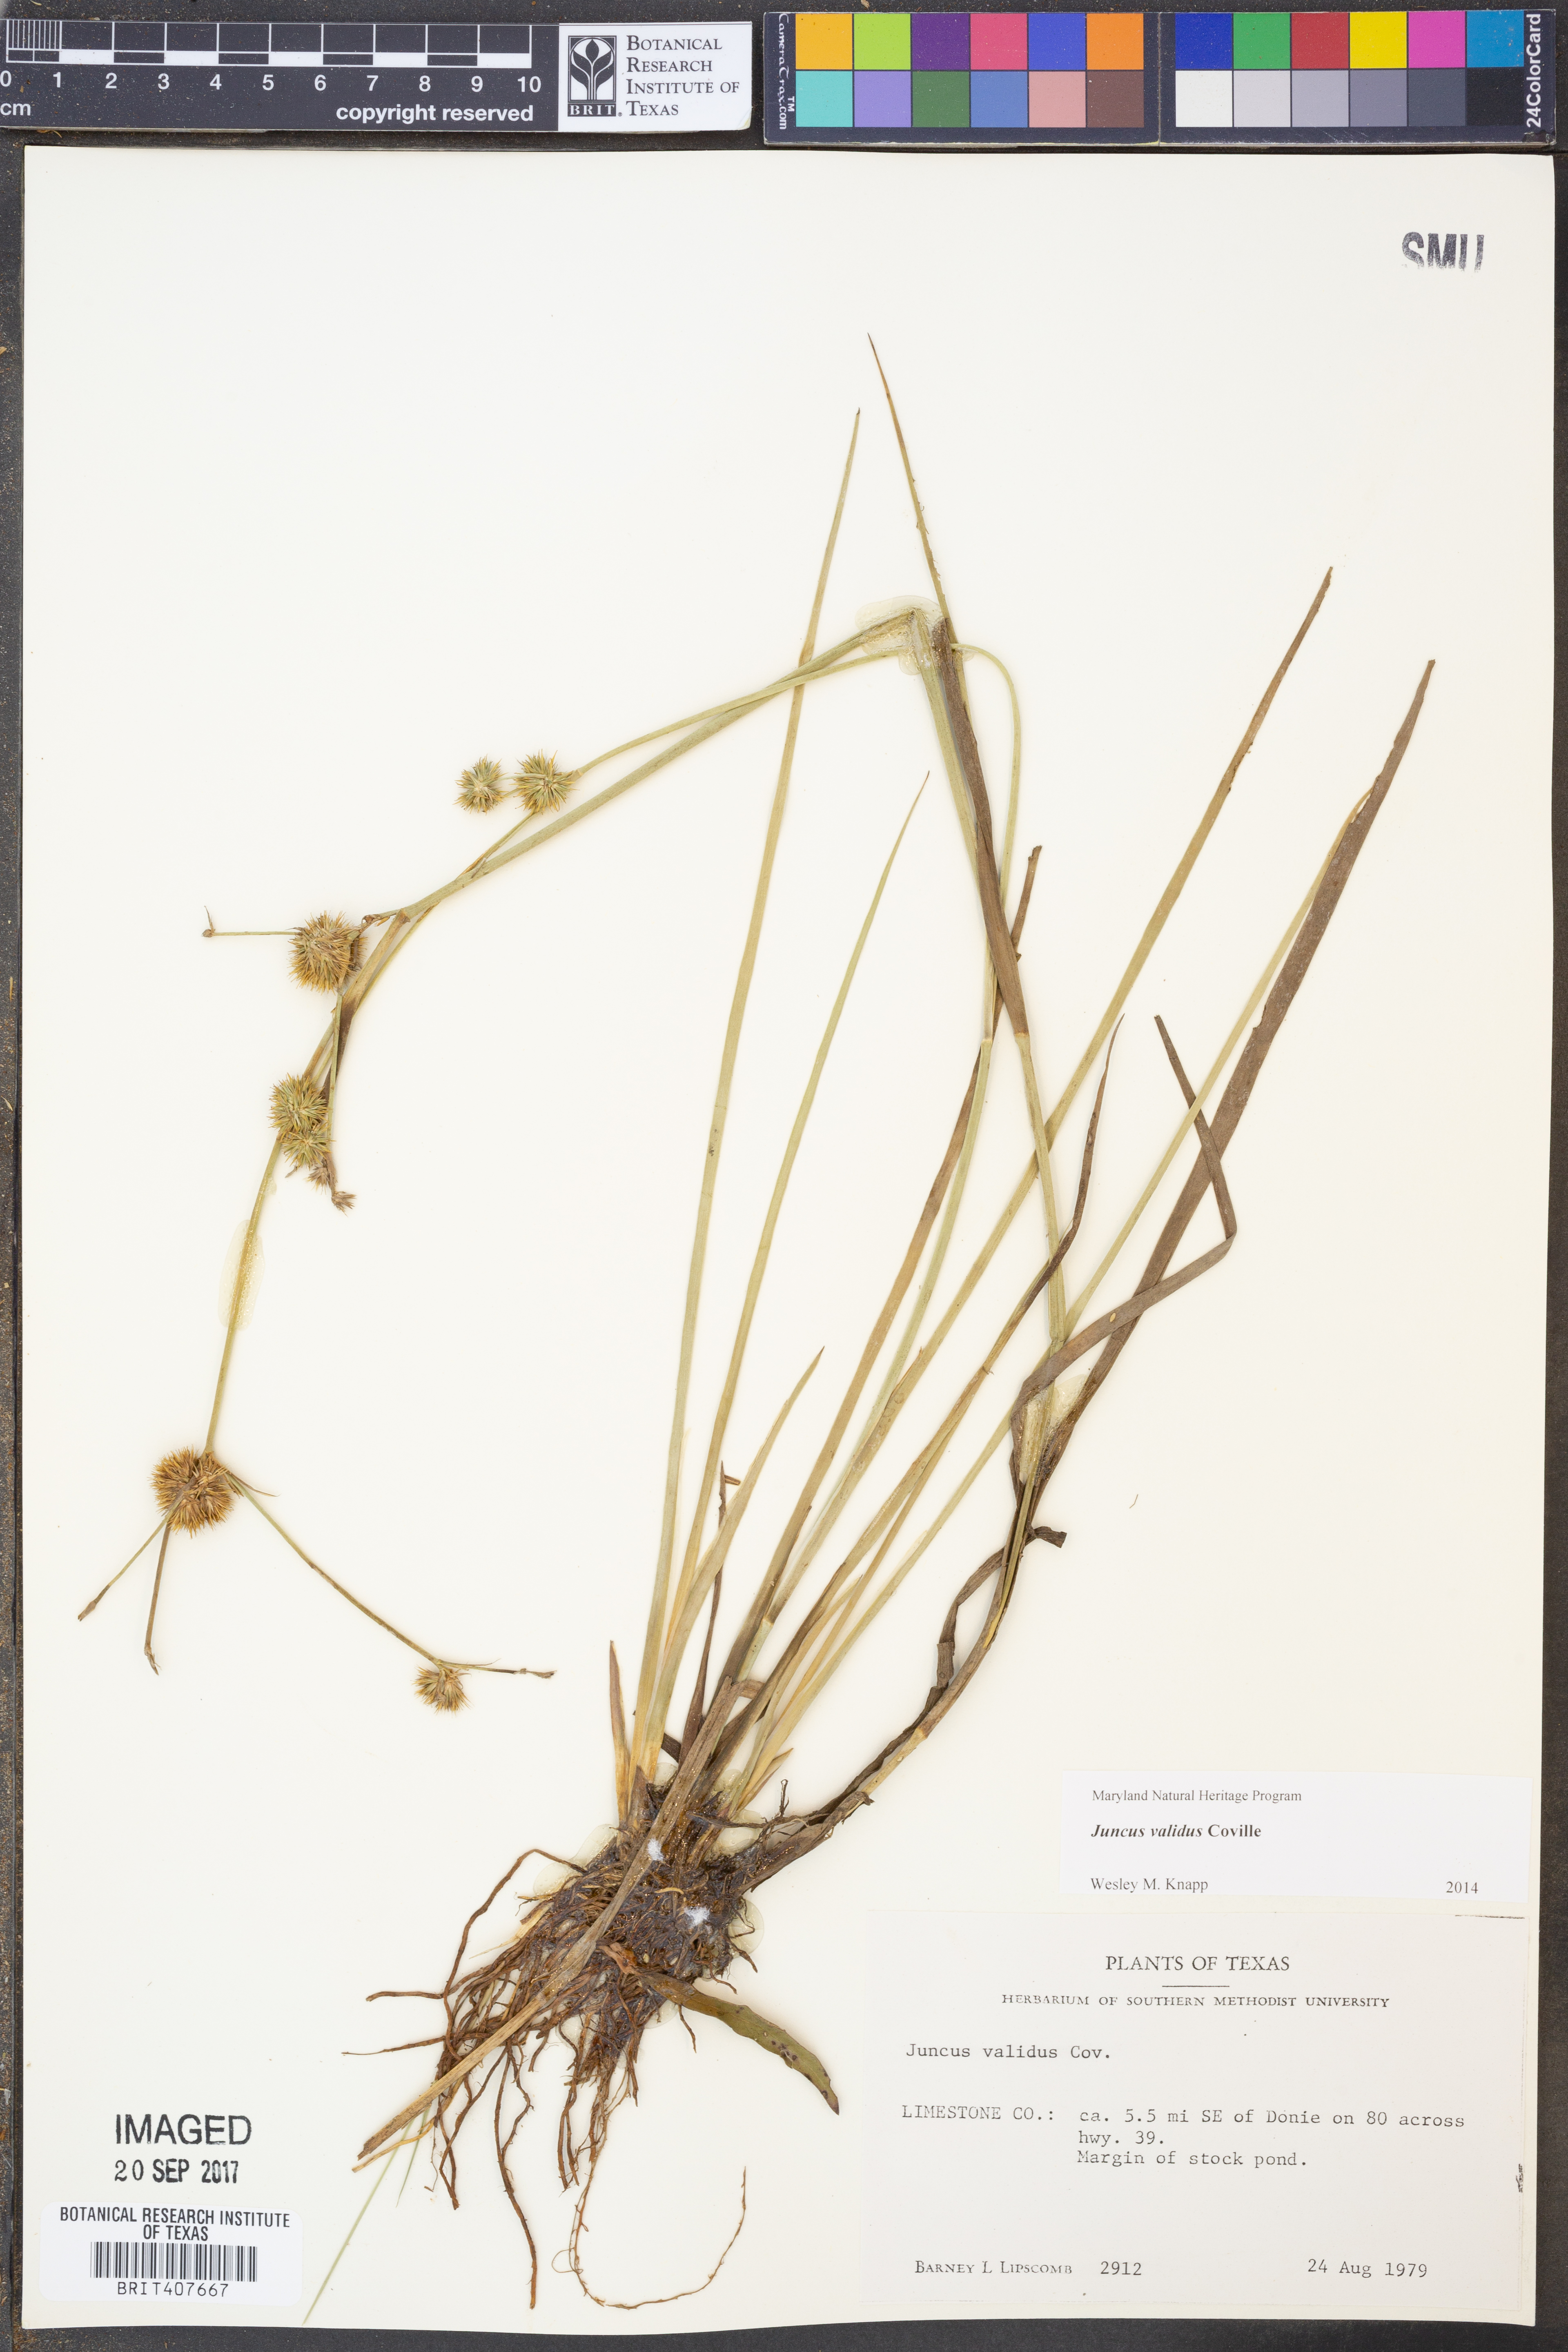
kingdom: Plantae
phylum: Tracheophyta
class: Liliopsida
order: Poales
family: Juncaceae
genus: Juncus
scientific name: Juncus validus
